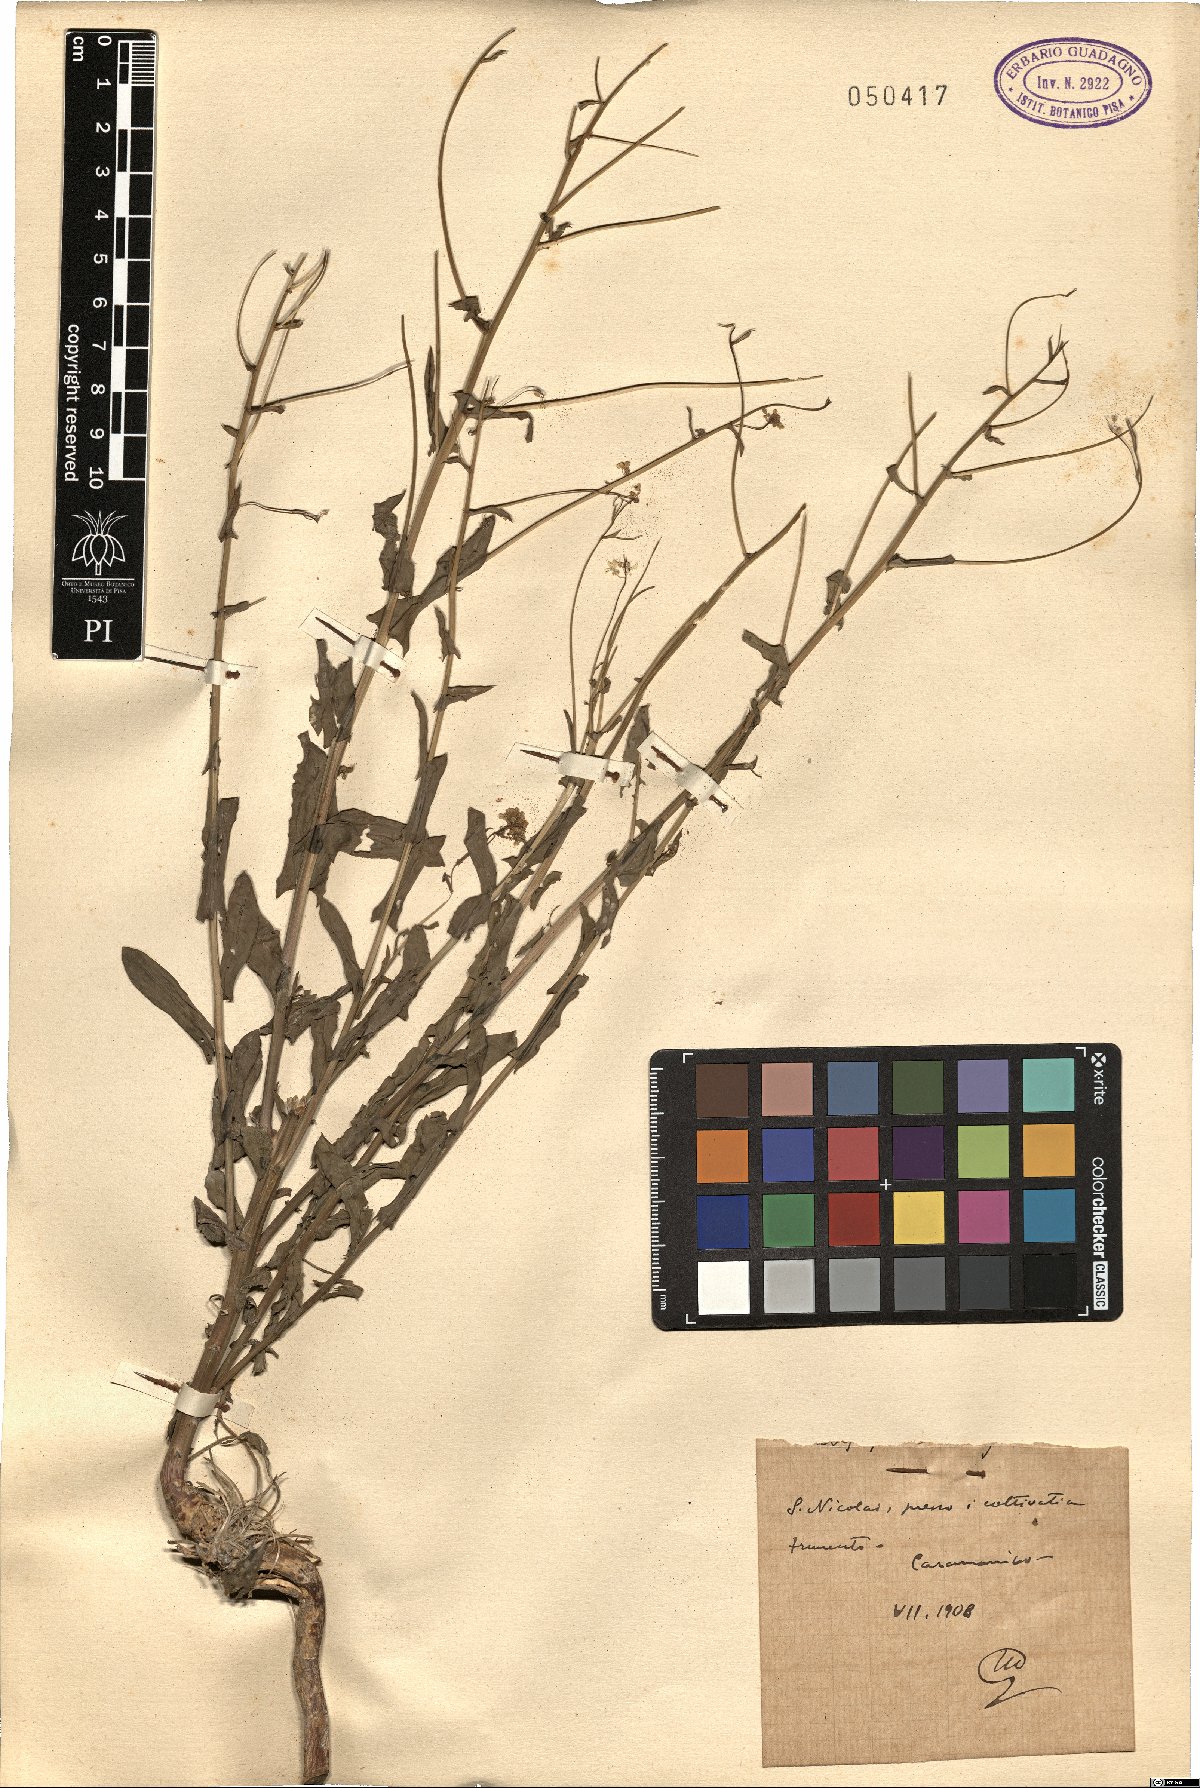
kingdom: Plantae
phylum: Tracheophyta
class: Magnoliopsida
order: Brassicales
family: Brassicaceae
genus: Peltaria
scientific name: Peltaria
